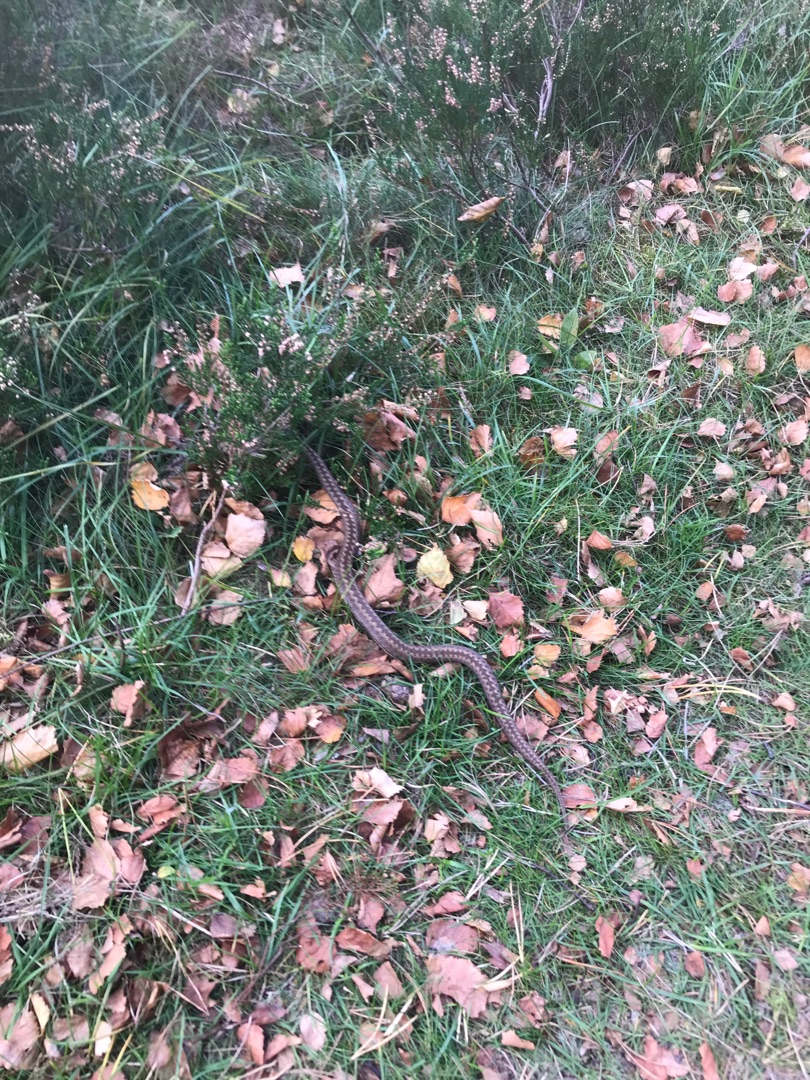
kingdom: Animalia
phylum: Chordata
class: Squamata
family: Viperidae
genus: Vipera
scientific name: Vipera berus
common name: Hugorm
